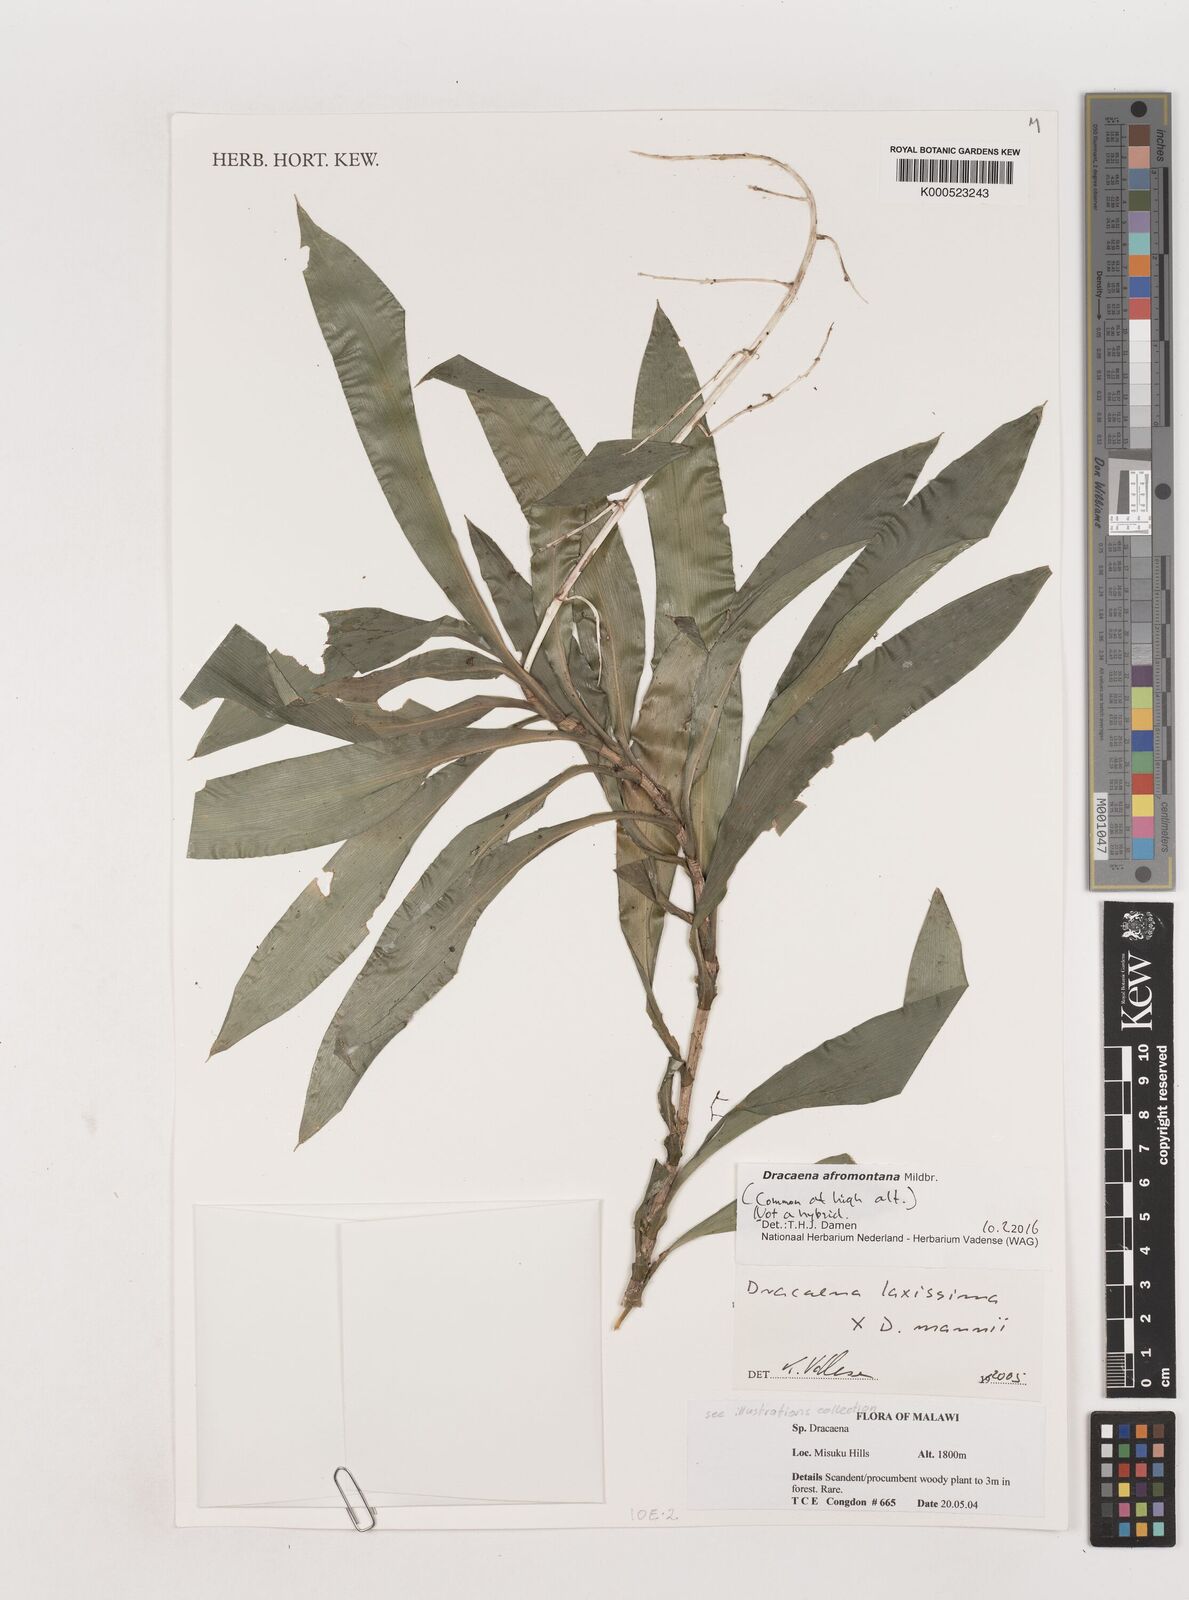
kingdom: Plantae
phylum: Tracheophyta
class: Liliopsida
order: Asparagales
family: Asparagaceae
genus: Dracaena
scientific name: Dracaena afromontana
